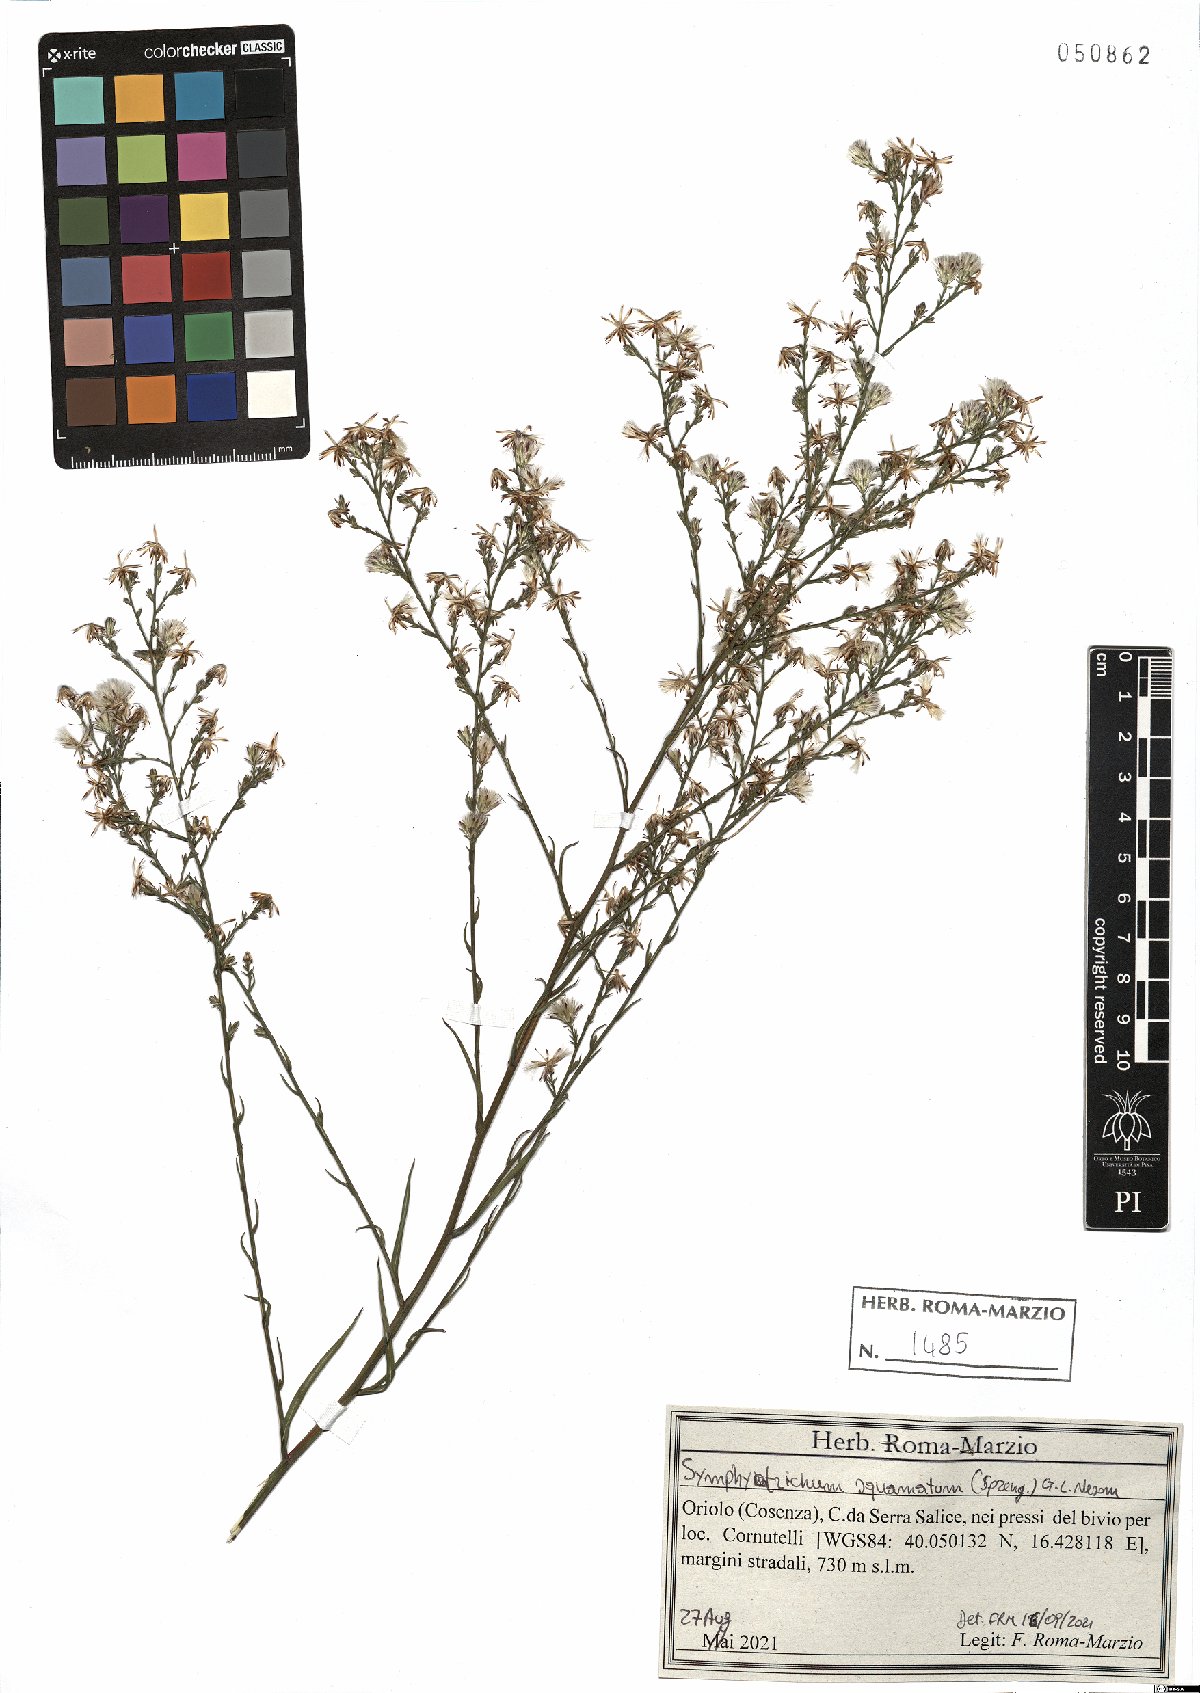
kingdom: Plantae
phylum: Tracheophyta
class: Magnoliopsida
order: Asterales
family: Asteraceae
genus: Symphyotrichum
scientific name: Symphyotrichum squamatum
